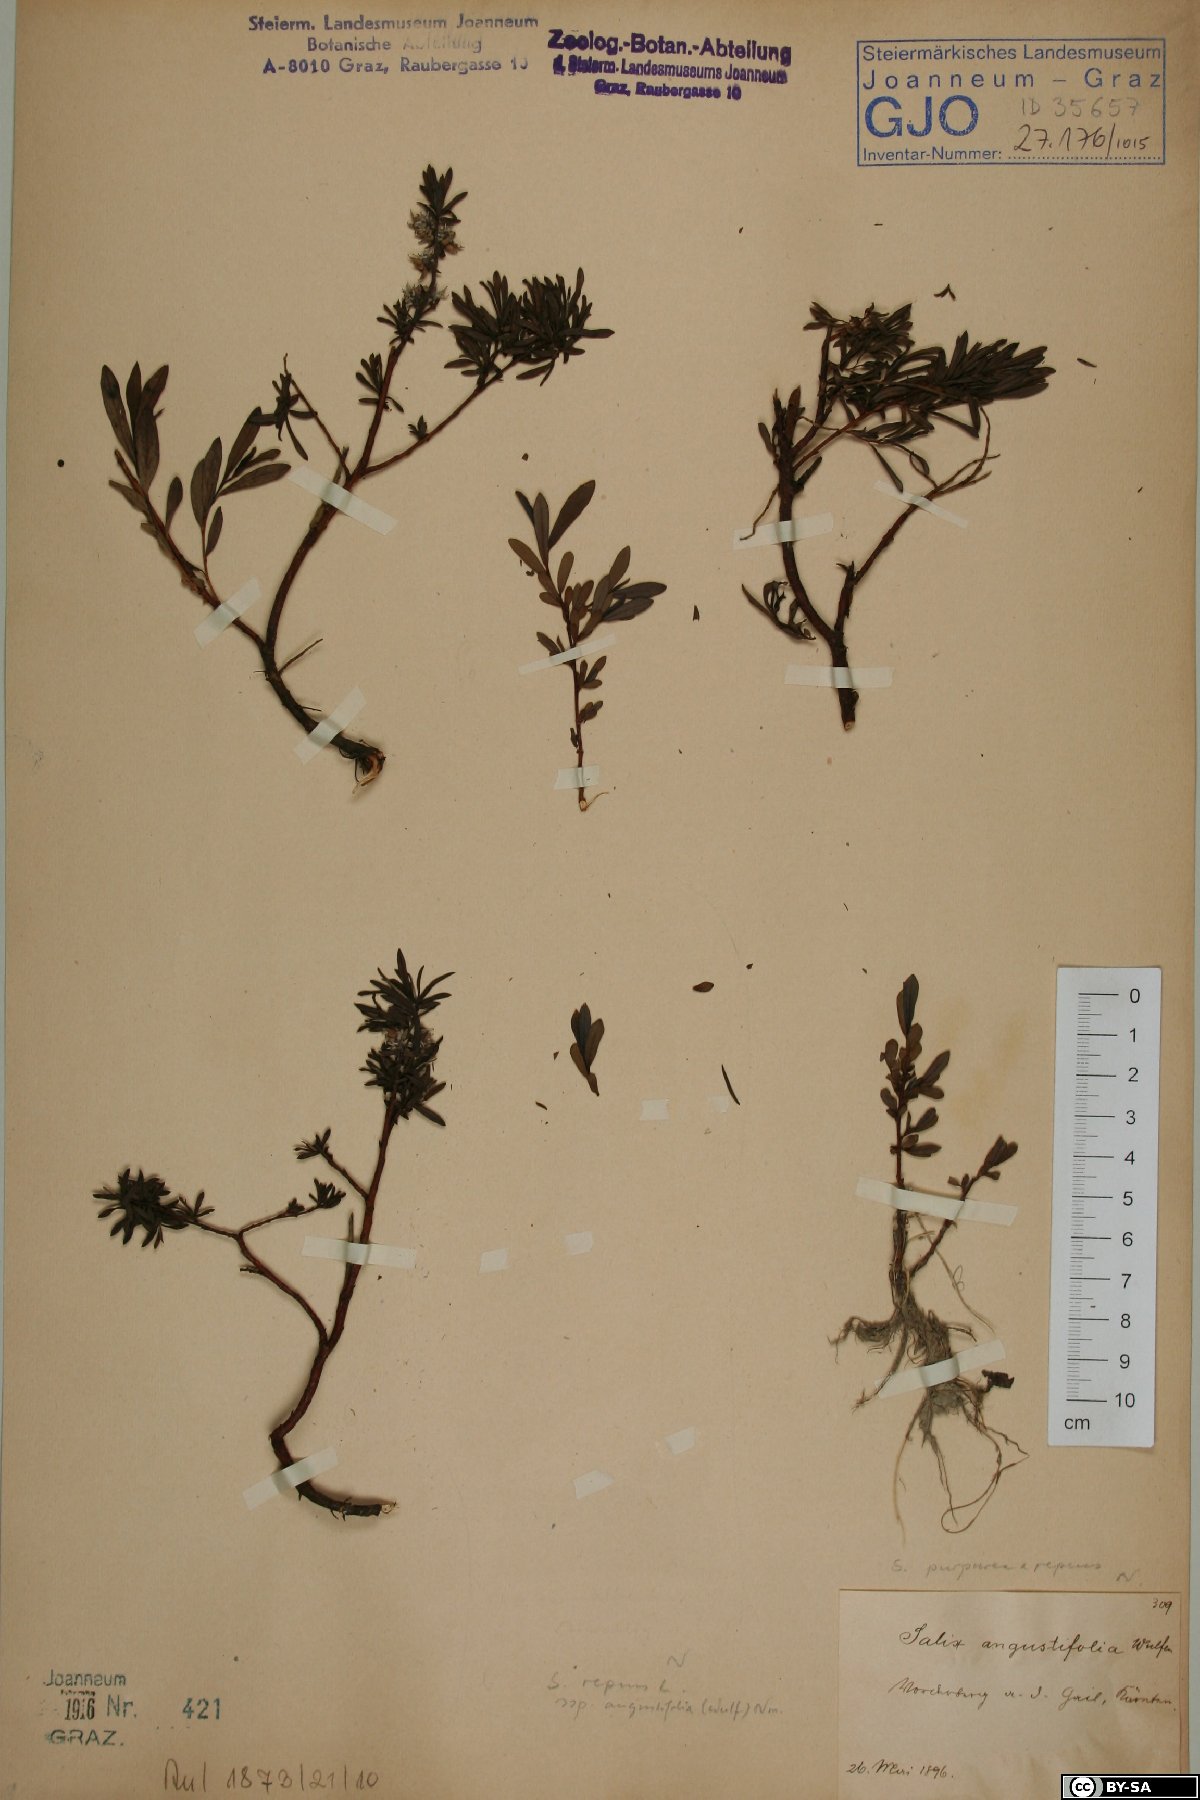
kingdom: Plantae
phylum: Tracheophyta
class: Magnoliopsida
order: Malpighiales
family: Salicaceae
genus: Salix
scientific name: Salix rosmarinifolia
